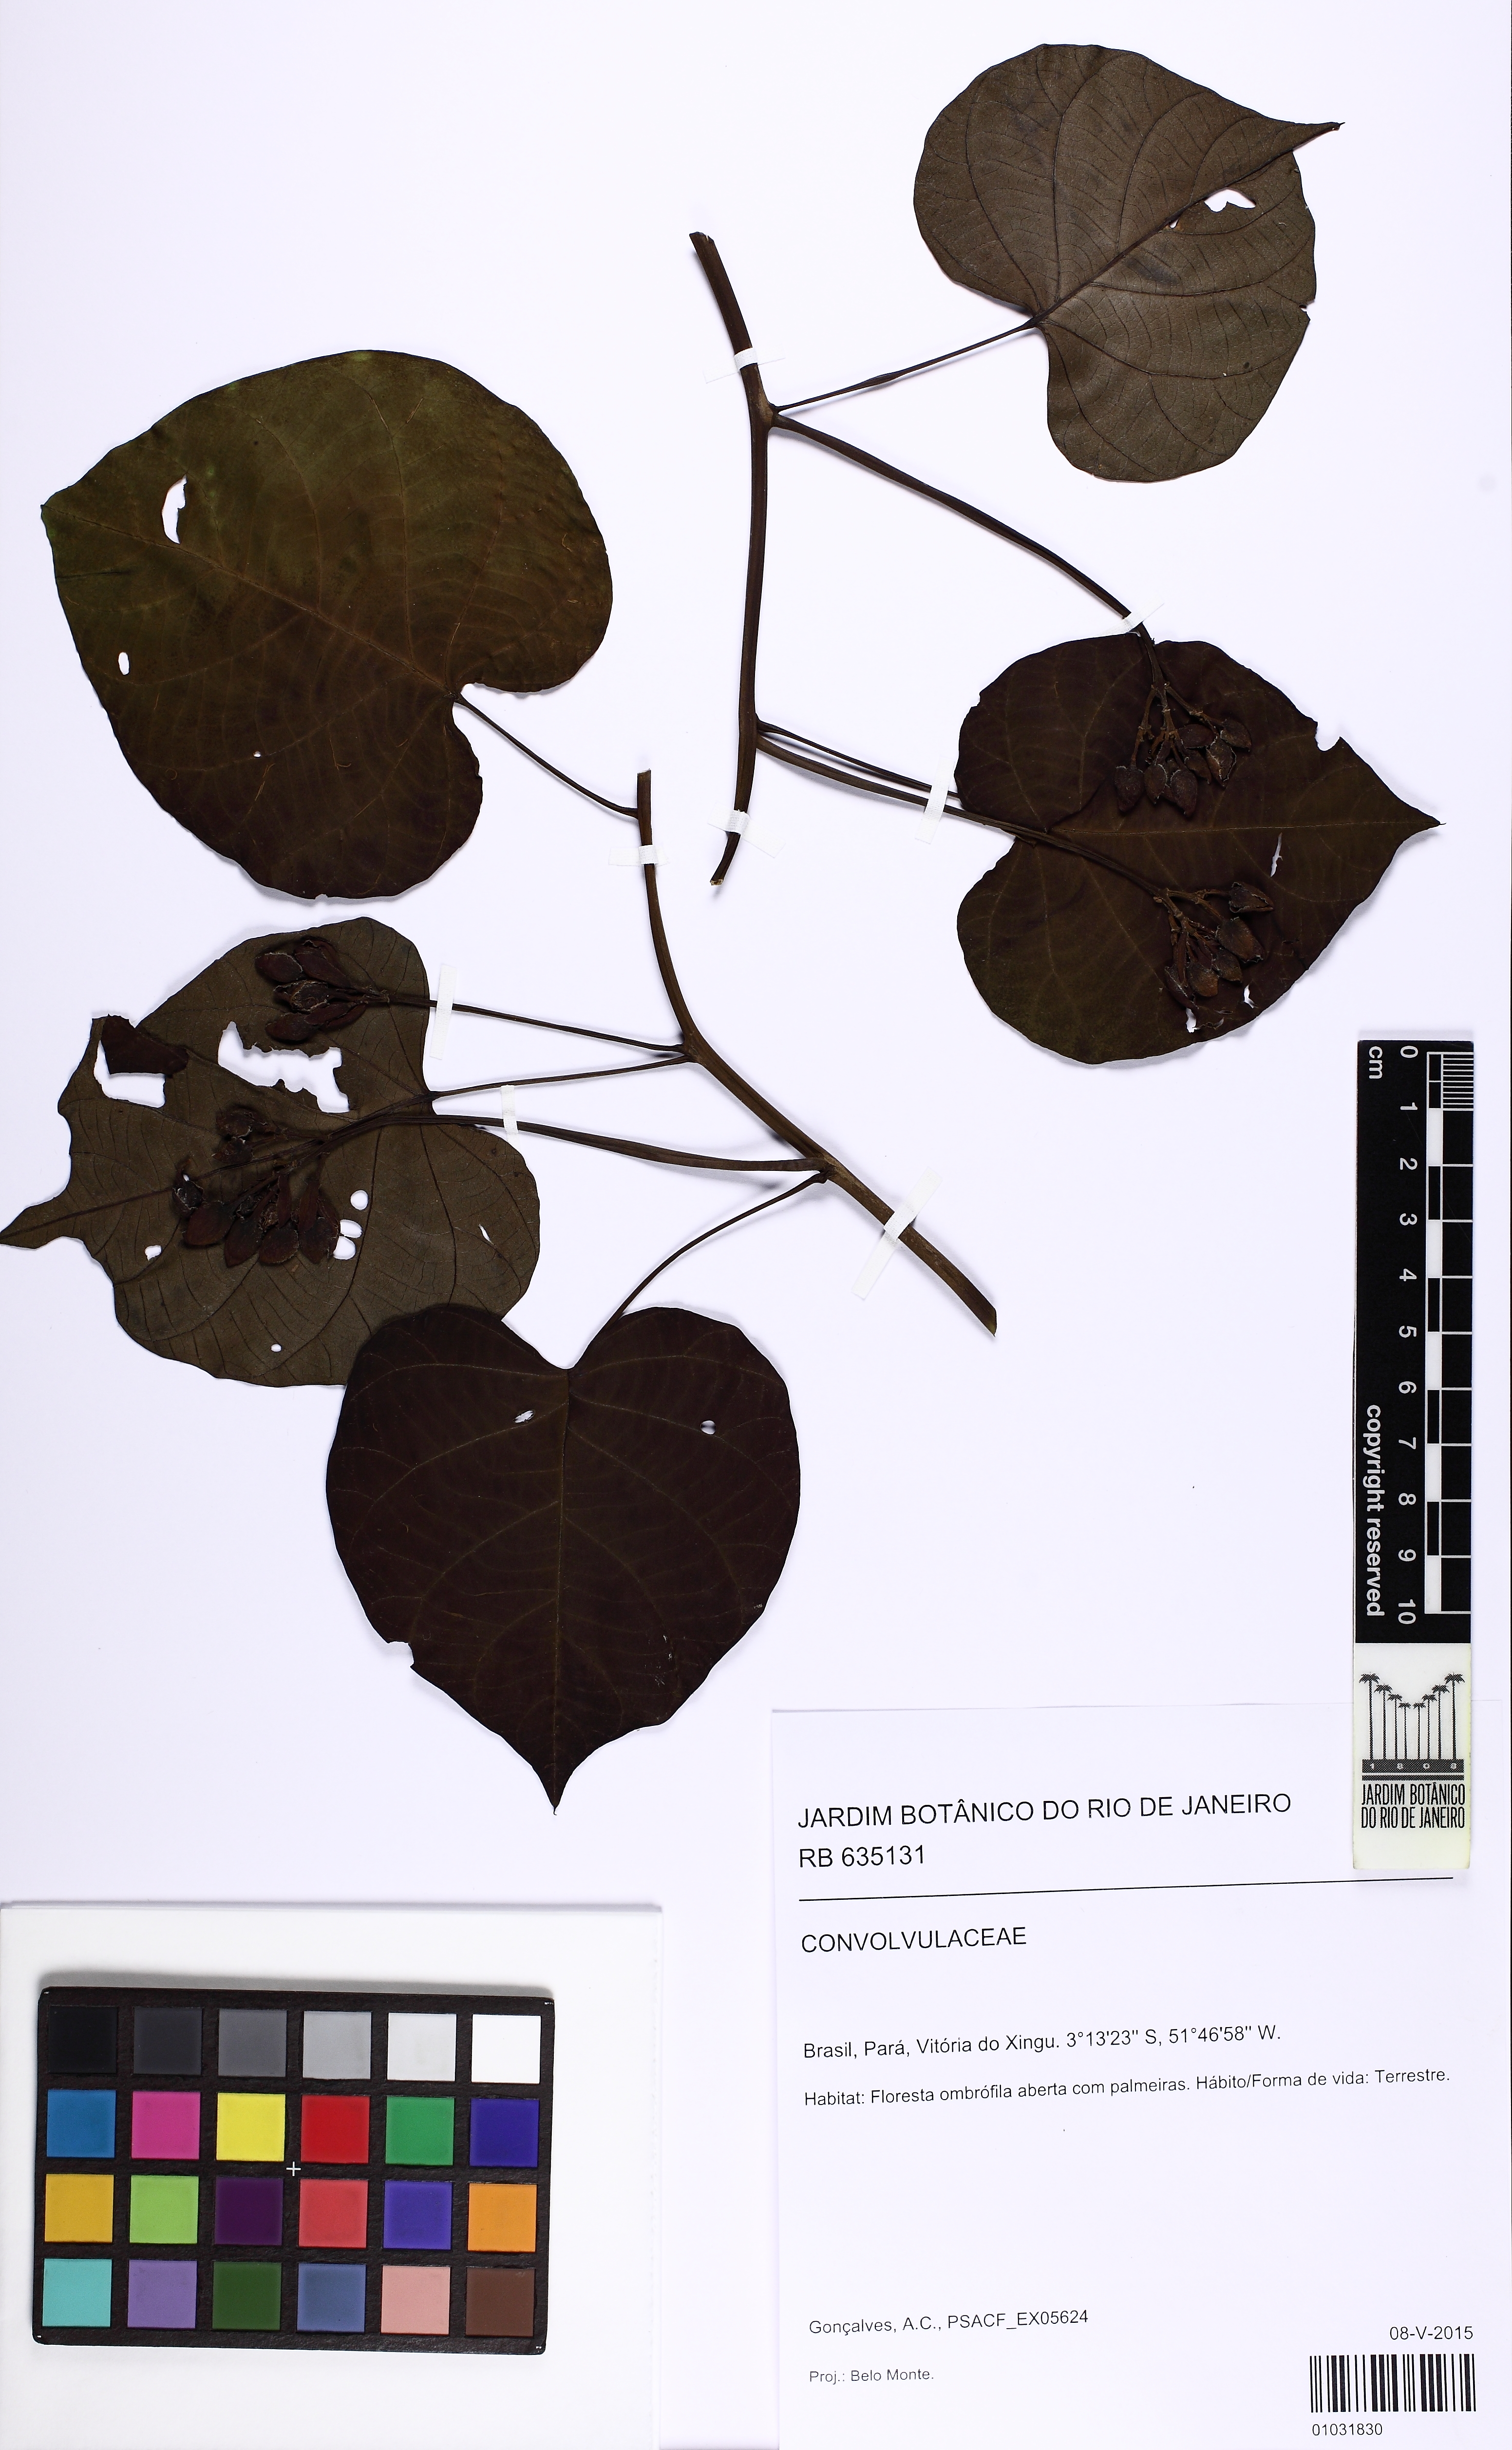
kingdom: Plantae
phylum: Tracheophyta
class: Magnoliopsida
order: Solanales
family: Convolvulaceae
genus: Ipomoea
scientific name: Ipomoea philomega
